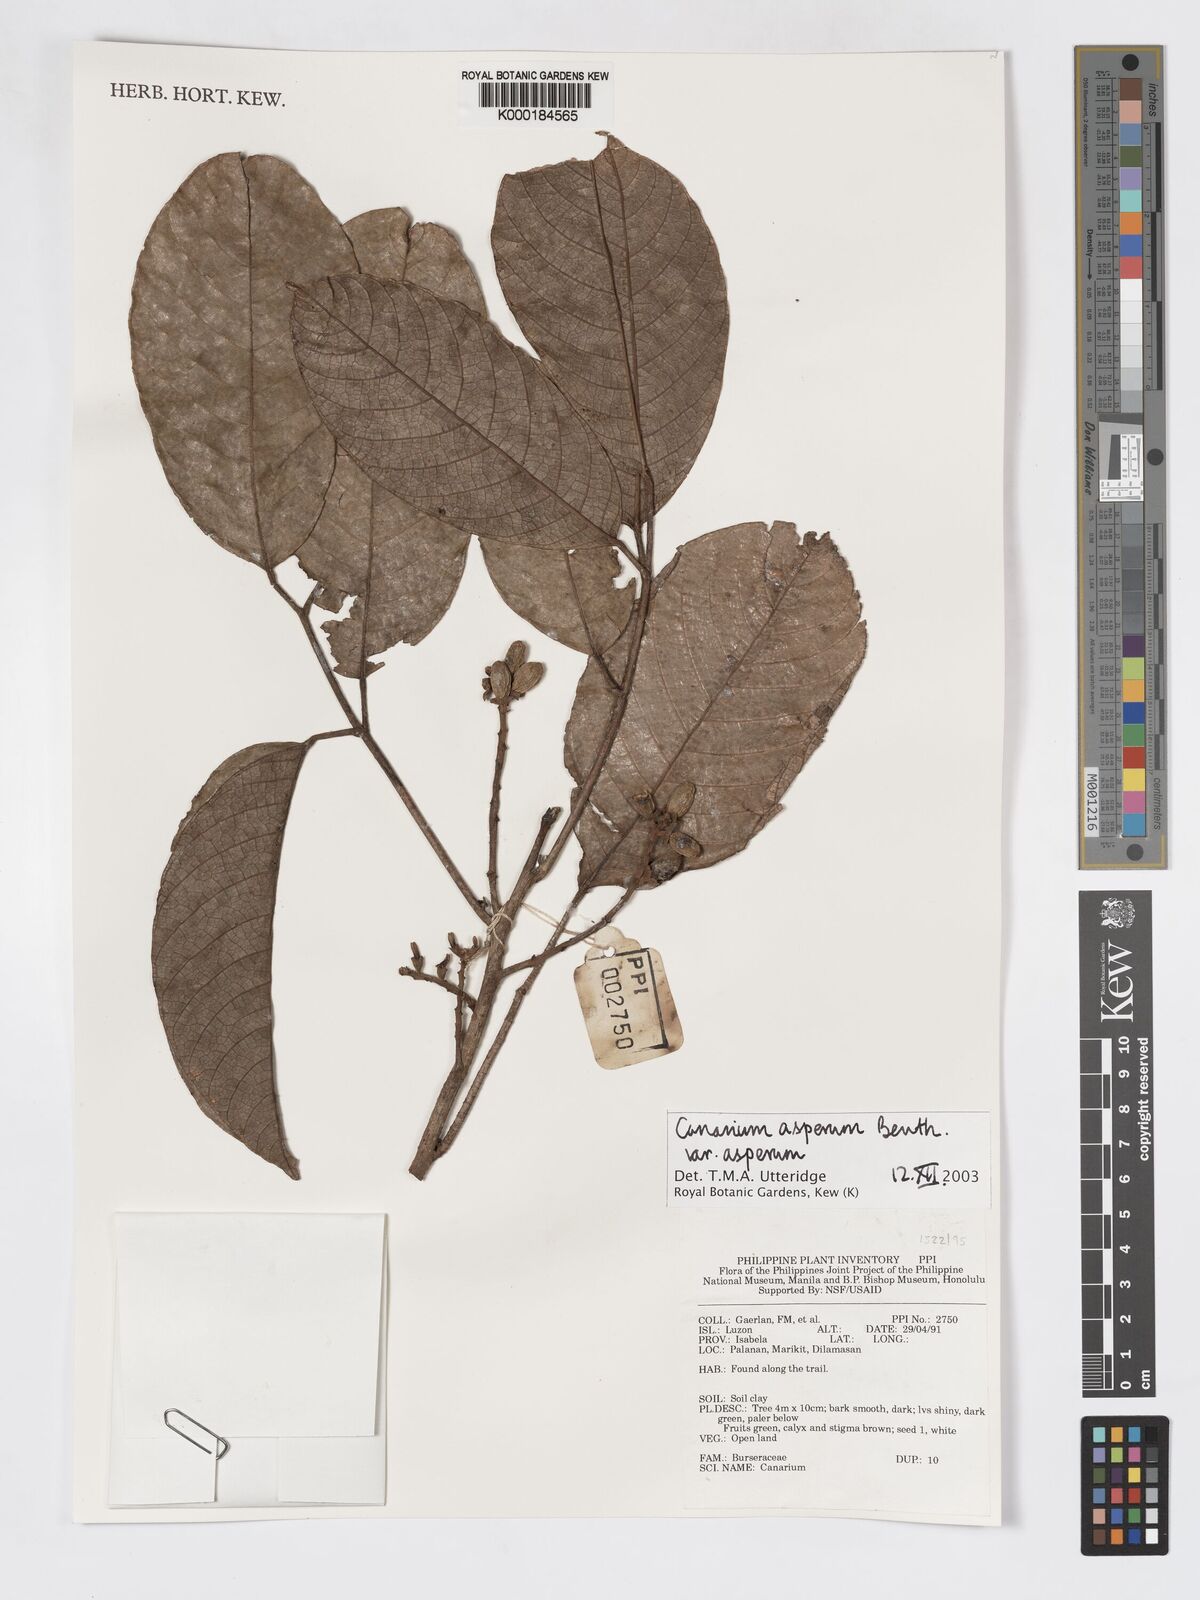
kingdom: Plantae
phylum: Tracheophyta
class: Magnoliopsida
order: Sapindales
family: Burseraceae
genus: Canarium
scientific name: Canarium asperum
